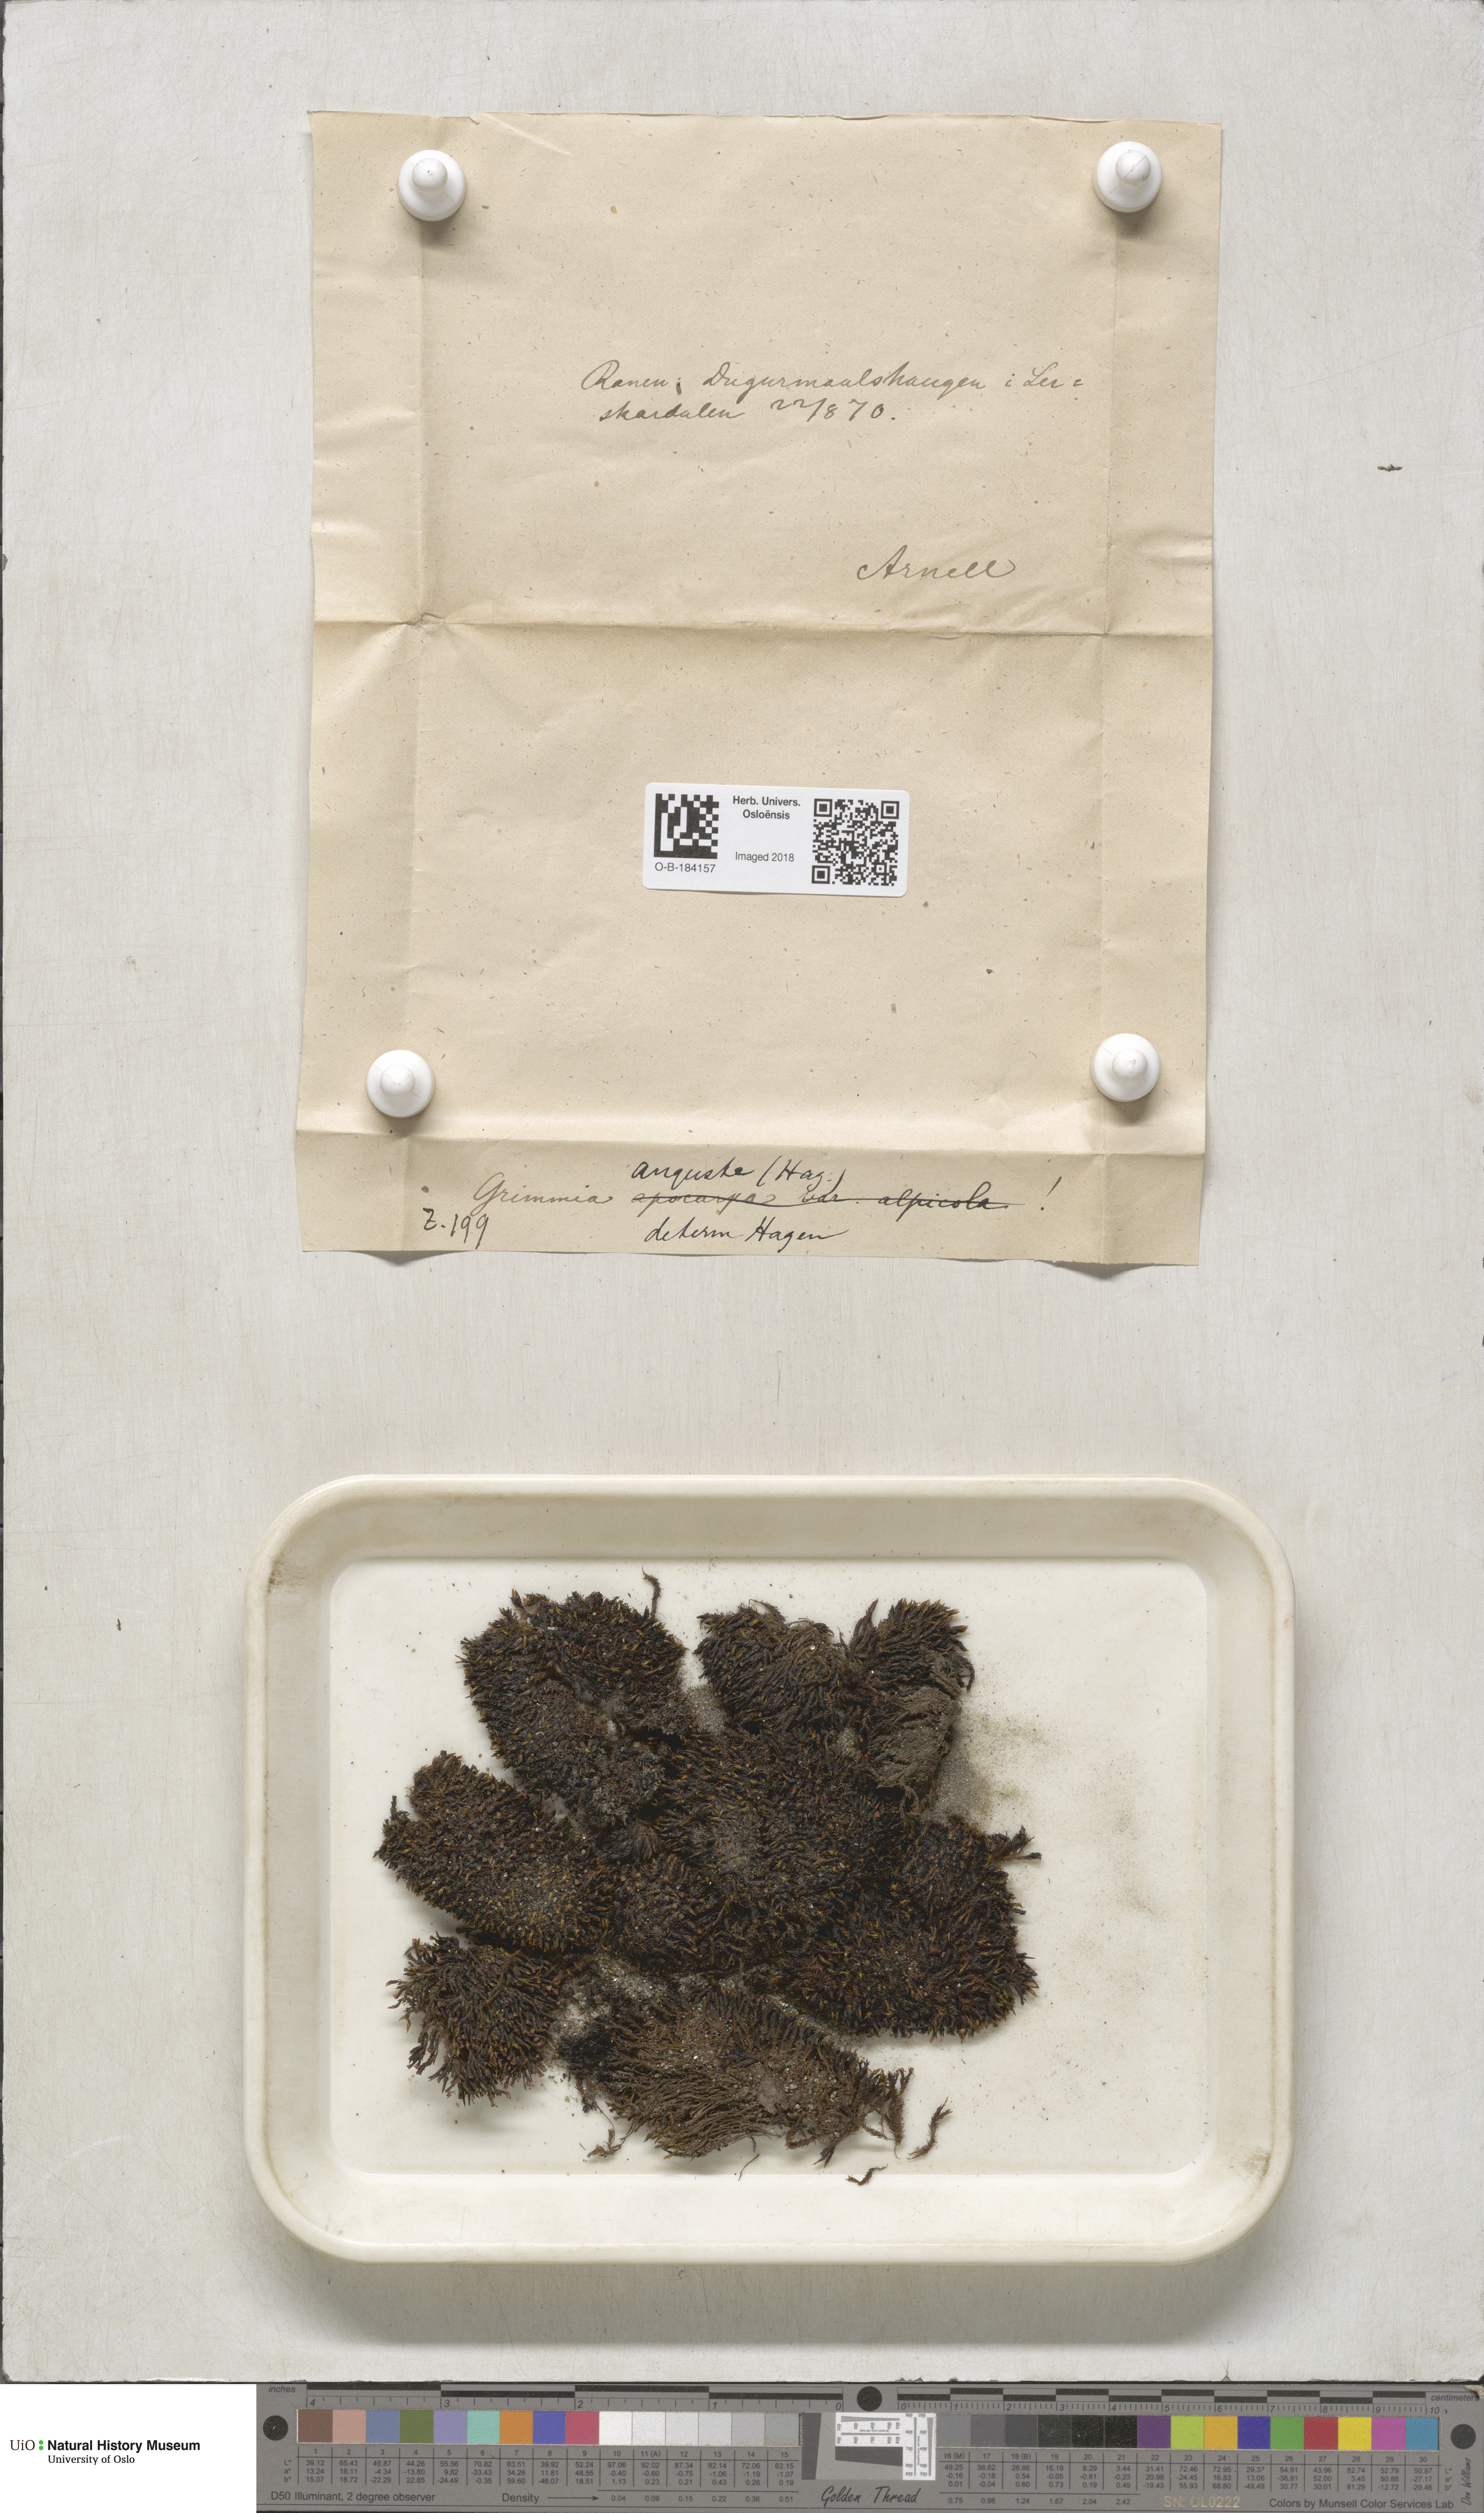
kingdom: Plantae
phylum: Bryophyta
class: Bryopsida
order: Grimmiales
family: Grimmiaceae
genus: Schistidium
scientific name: Schistidium agassizii
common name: Agassiz's bloom moss
